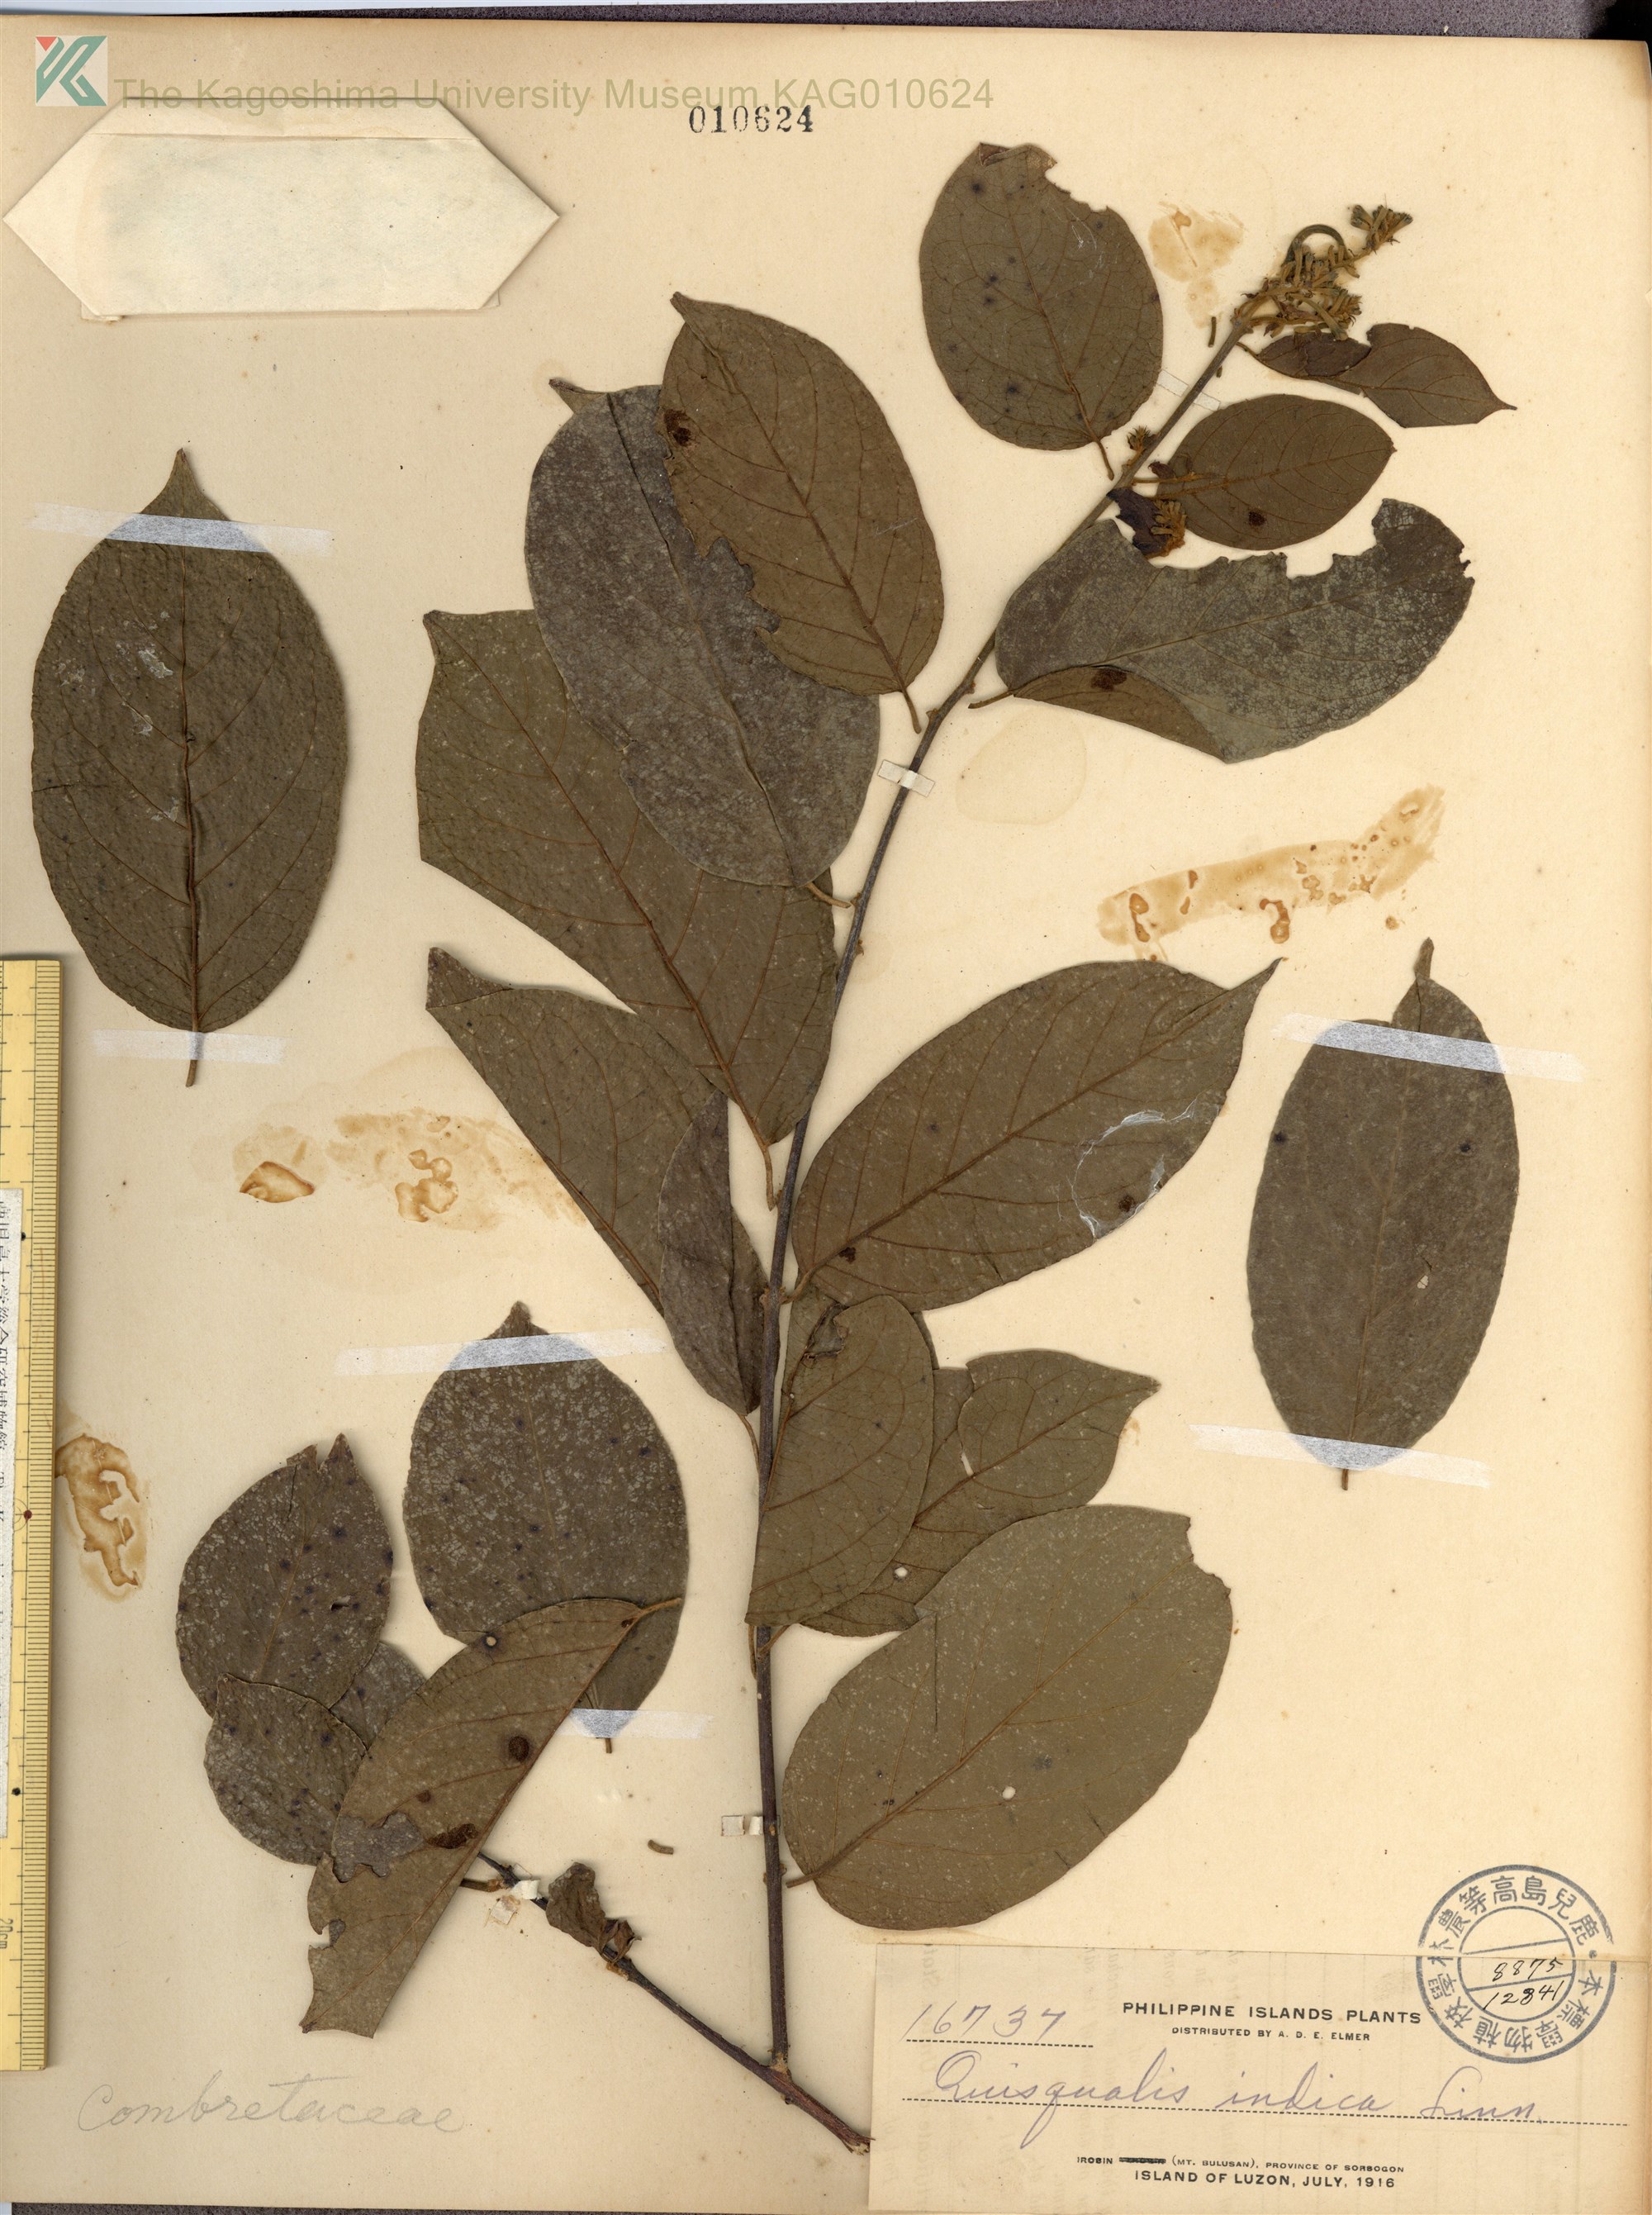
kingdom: Plantae
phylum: Tracheophyta
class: Magnoliopsida
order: Myrtales
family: Combretaceae
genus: Combretum
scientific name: Combretum indicum
